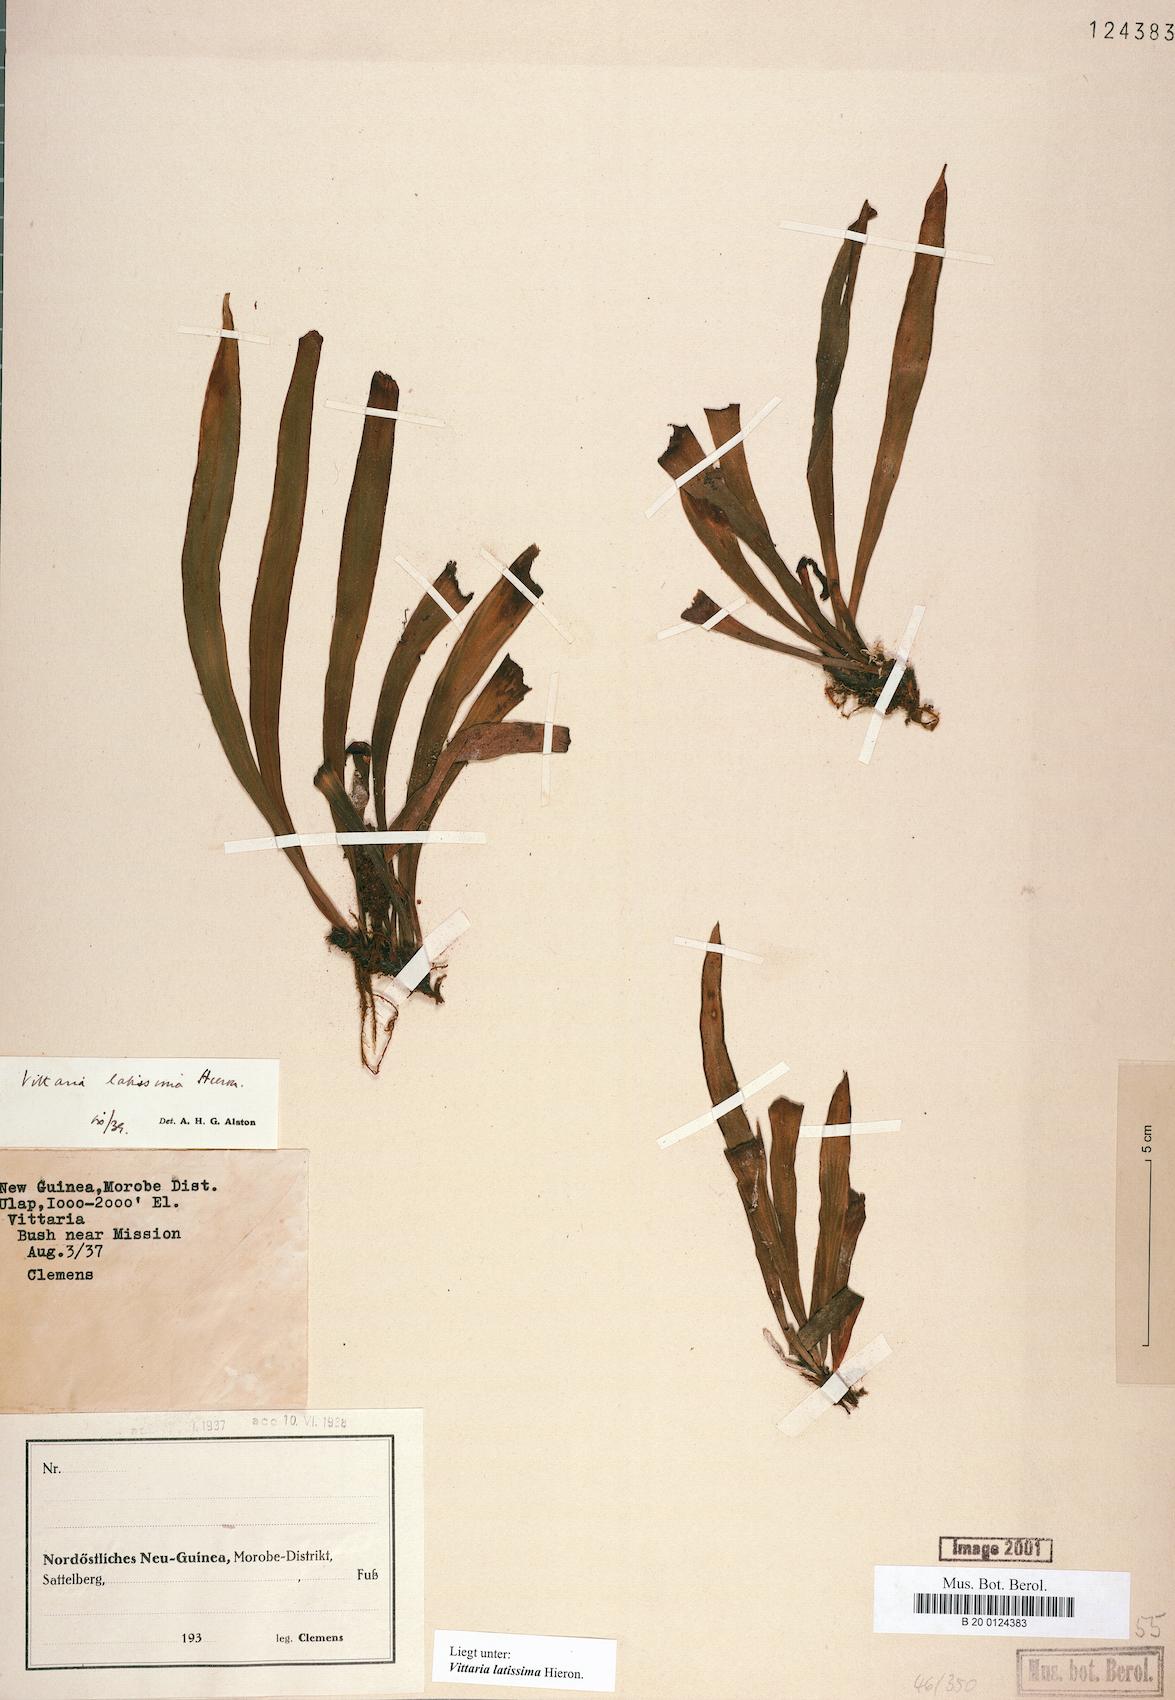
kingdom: Plantae
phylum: Tracheophyta
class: Polypodiopsida
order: Polypodiales
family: Pteridaceae
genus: Haplopteris
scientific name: Haplopteris elongata
